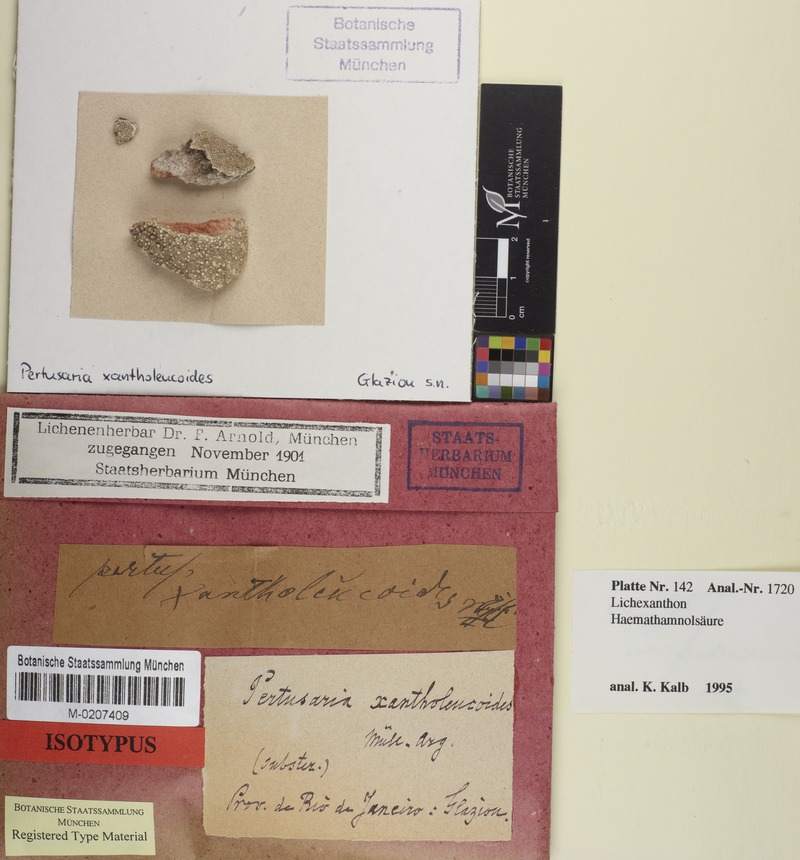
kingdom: Fungi
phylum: Ascomycota
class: Lecanoromycetes
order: Pertusariales
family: Pertusariaceae
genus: Pertusaria
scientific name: Pertusaria xantholeucoides
